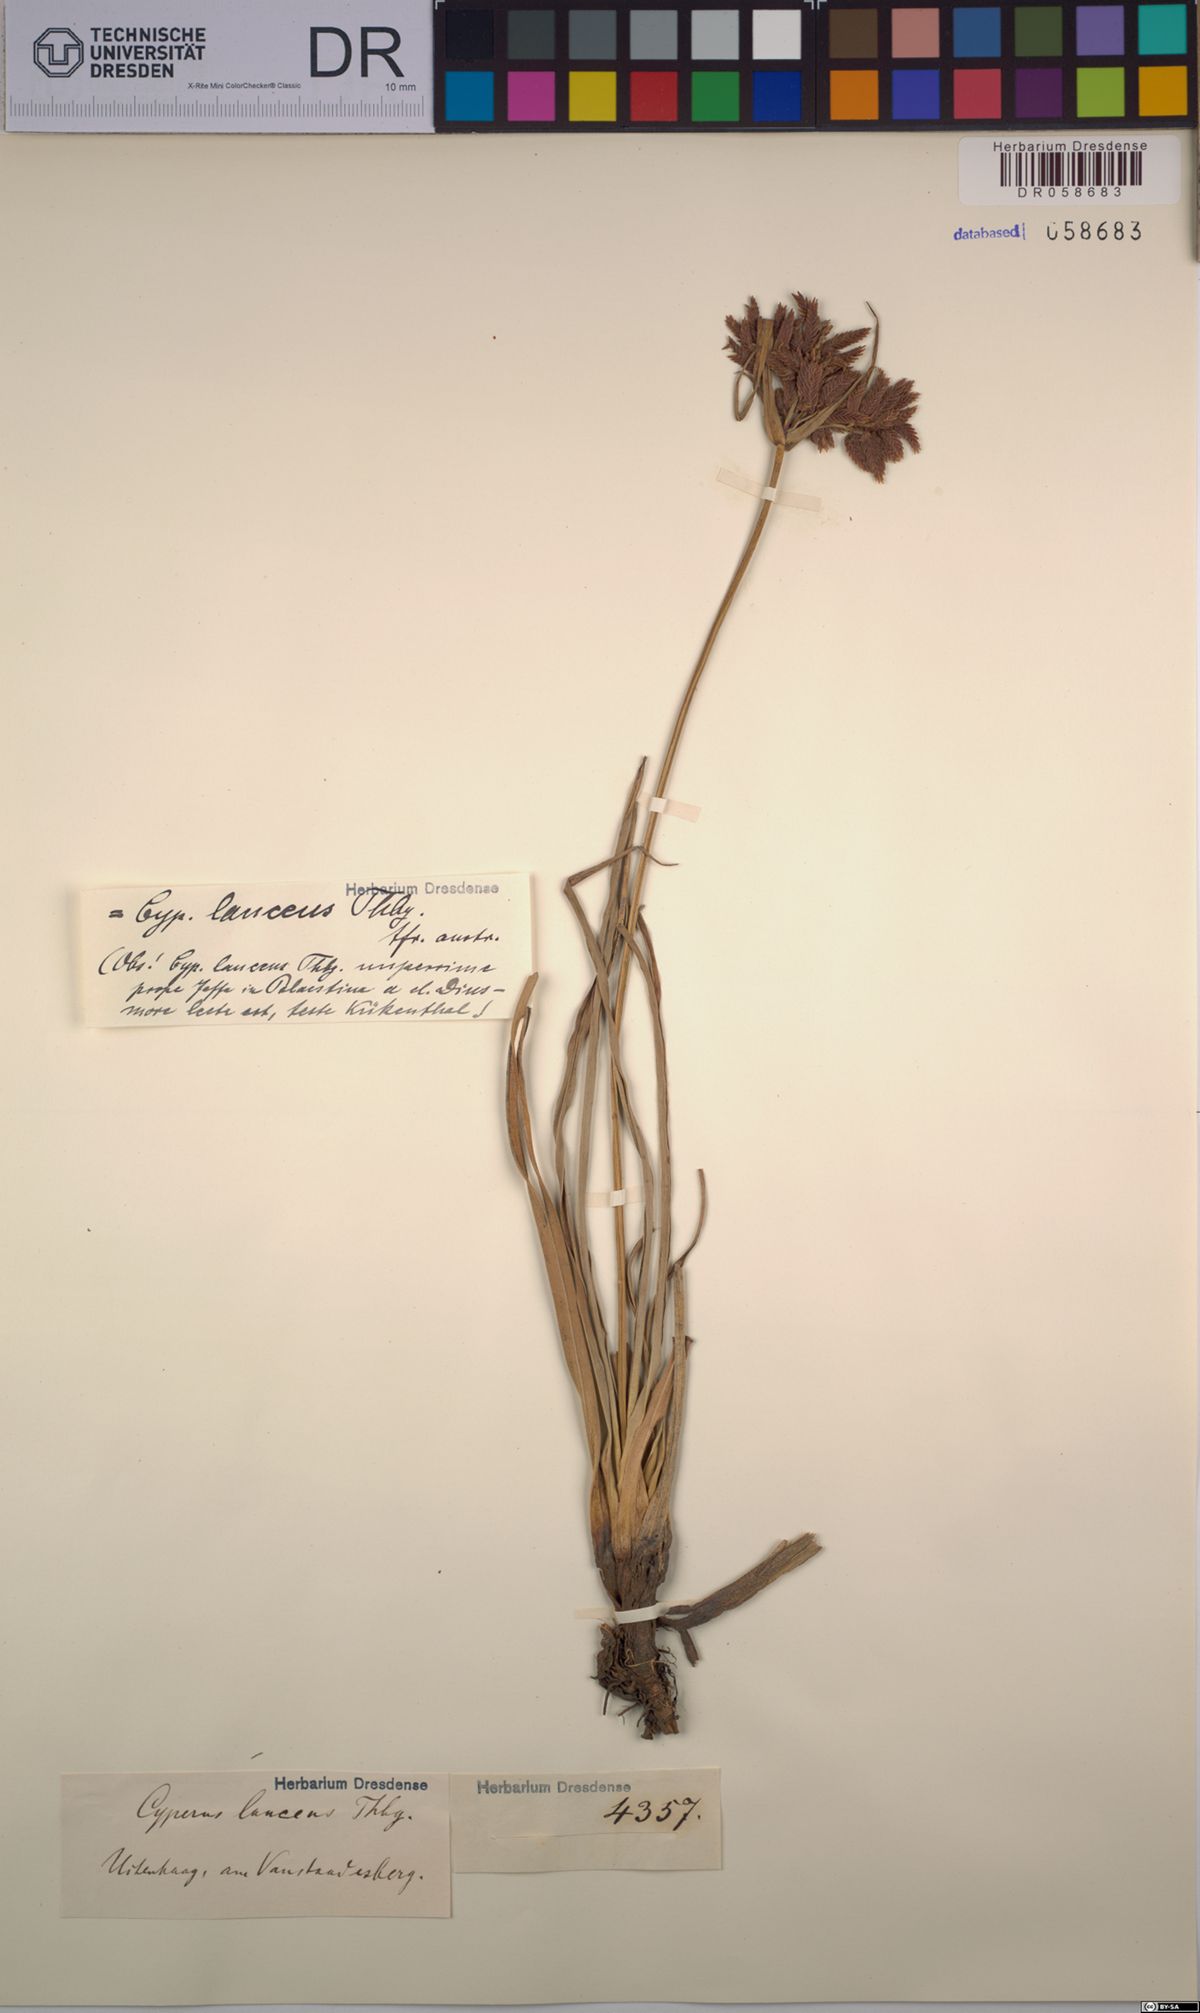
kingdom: Plantae
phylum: Tracheophyta
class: Liliopsida
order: Poales
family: Cyperaceae
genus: Cyperus
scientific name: Cyperus nitidus
